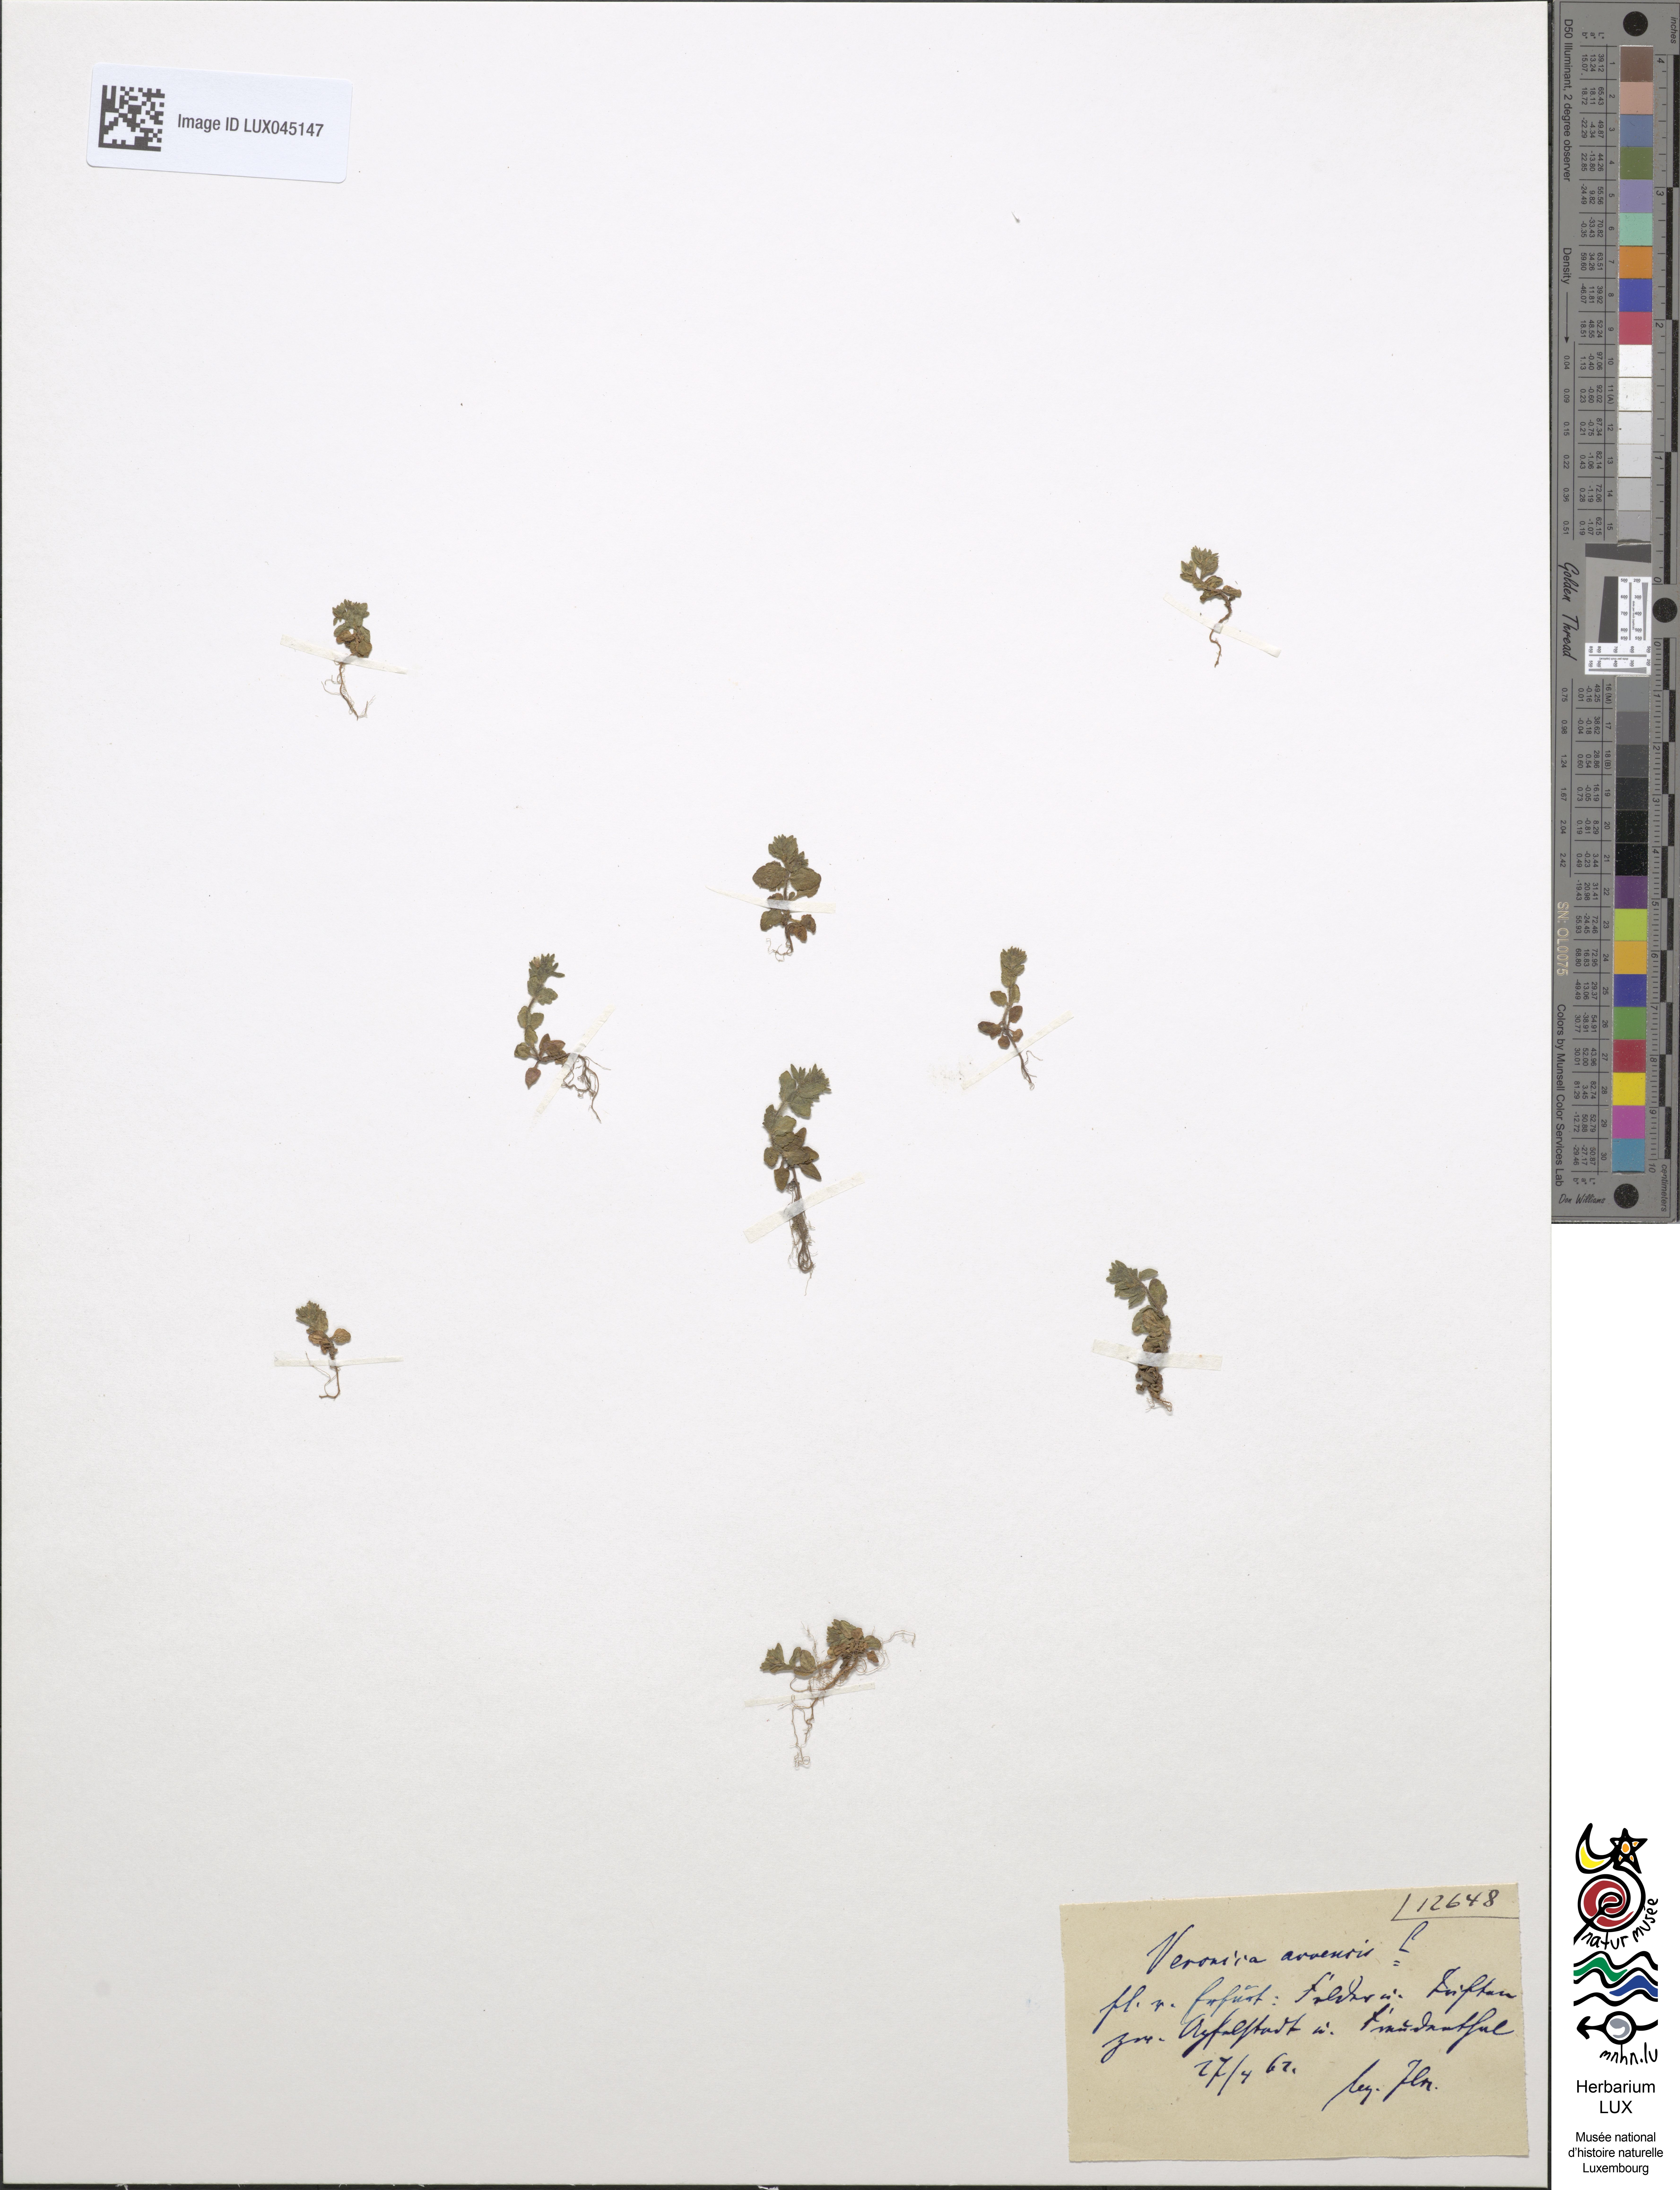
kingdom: Plantae
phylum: Tracheophyta
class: Magnoliopsida
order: Lamiales
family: Plantaginaceae
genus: Veronica
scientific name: Veronica arvensis
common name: Corn speedwell
